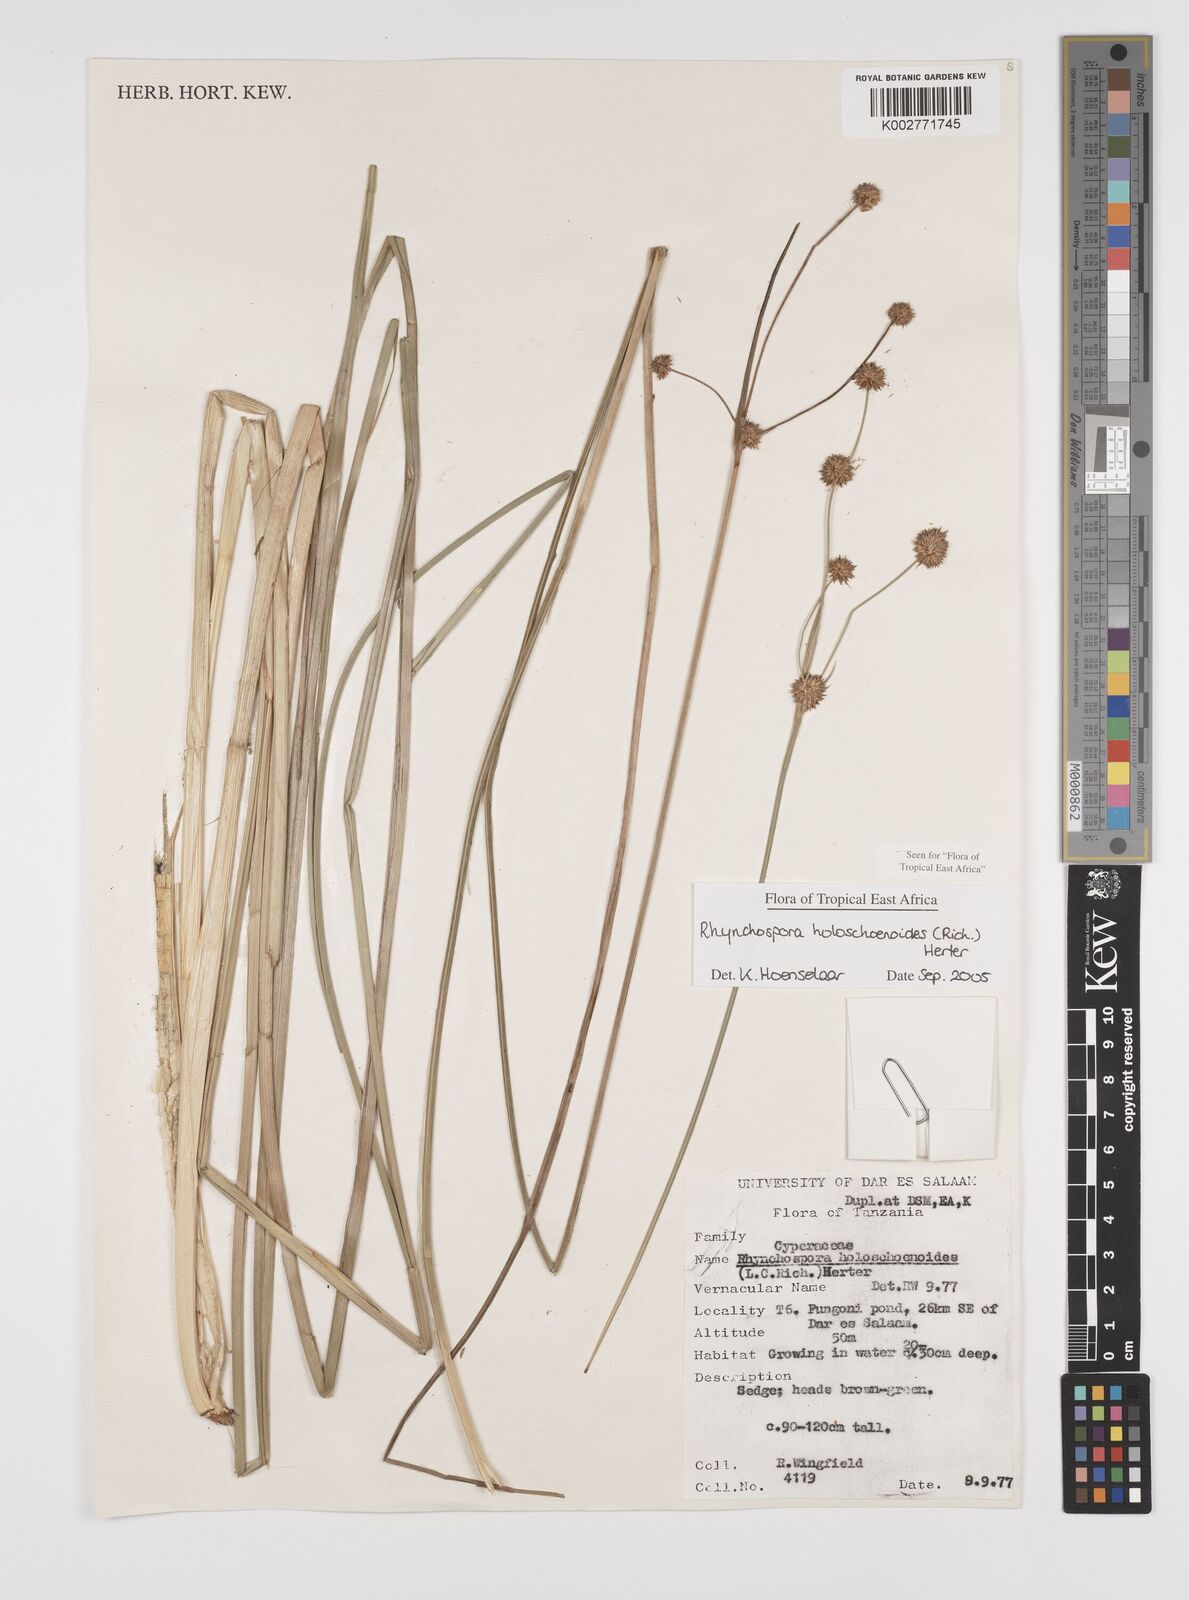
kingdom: Plantae
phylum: Tracheophyta
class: Liliopsida
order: Poales
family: Cyperaceae
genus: Rhynchospora
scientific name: Rhynchospora holoschoenoides
